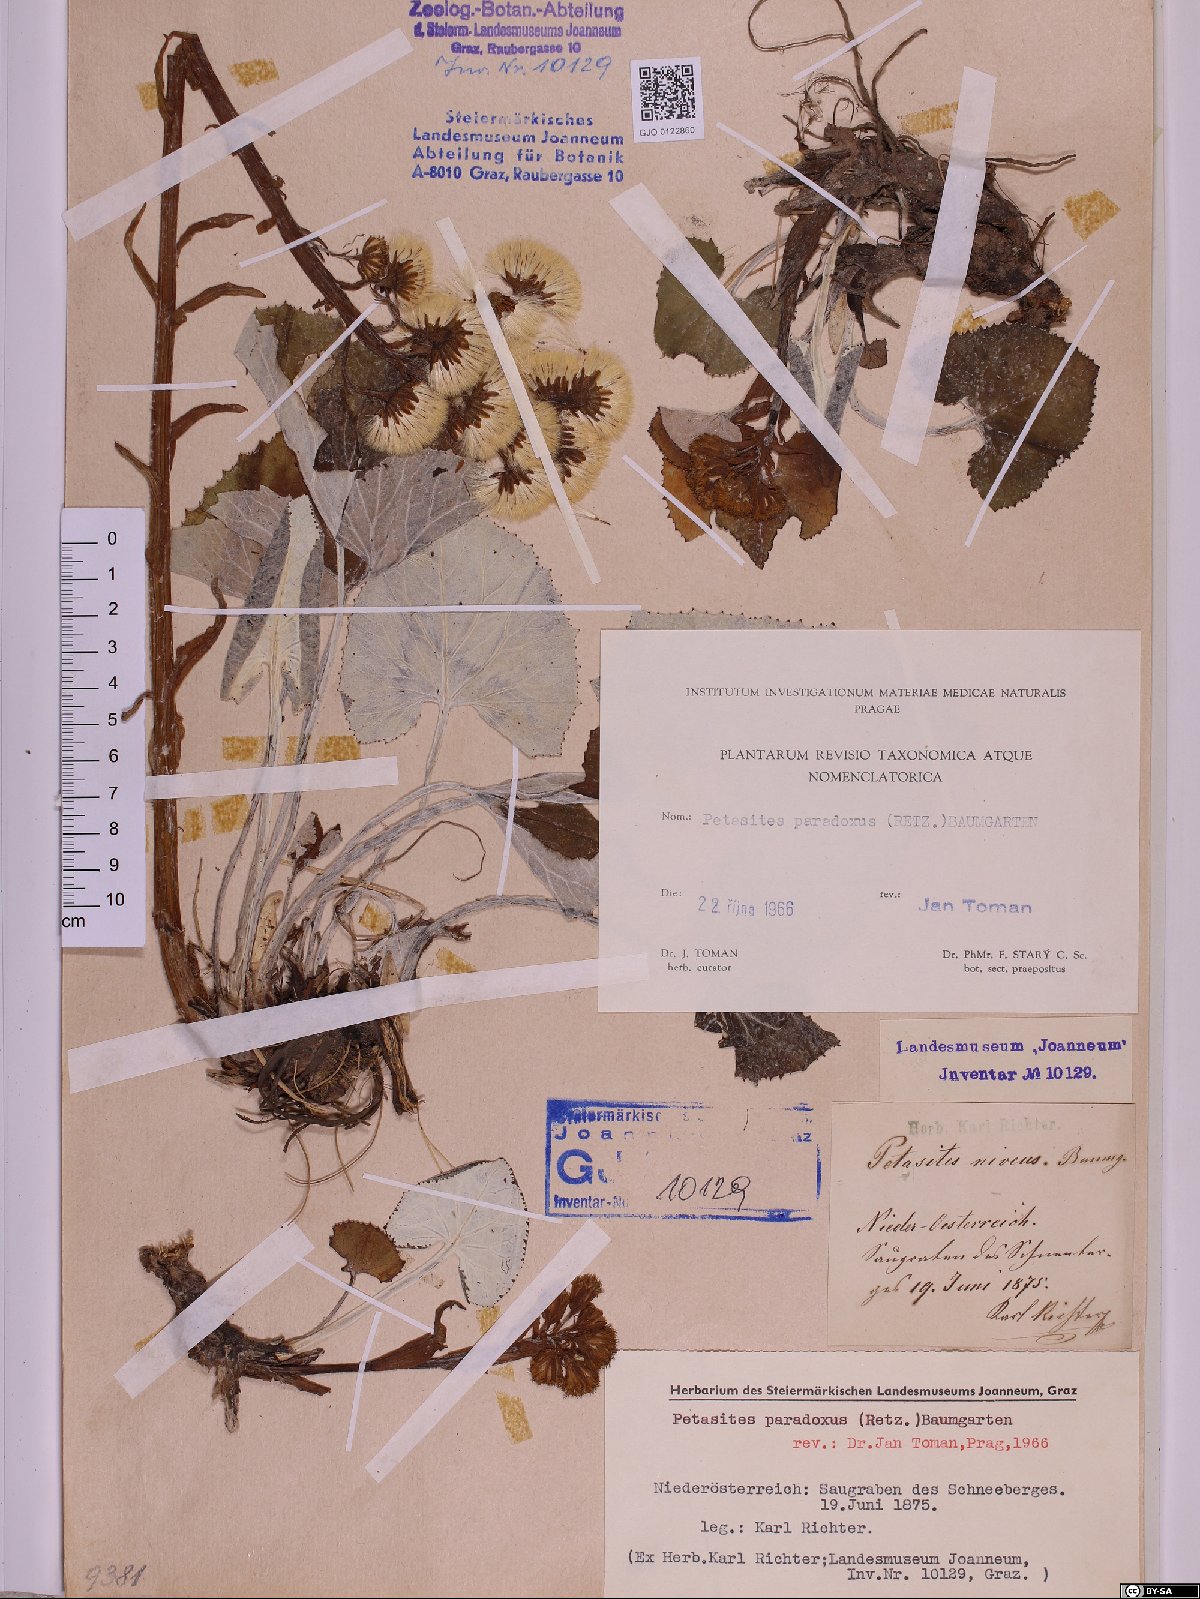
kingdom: Plantae
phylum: Tracheophyta
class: Magnoliopsida
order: Asterales
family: Asteraceae
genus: Petasites
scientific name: Petasites paradoxus
